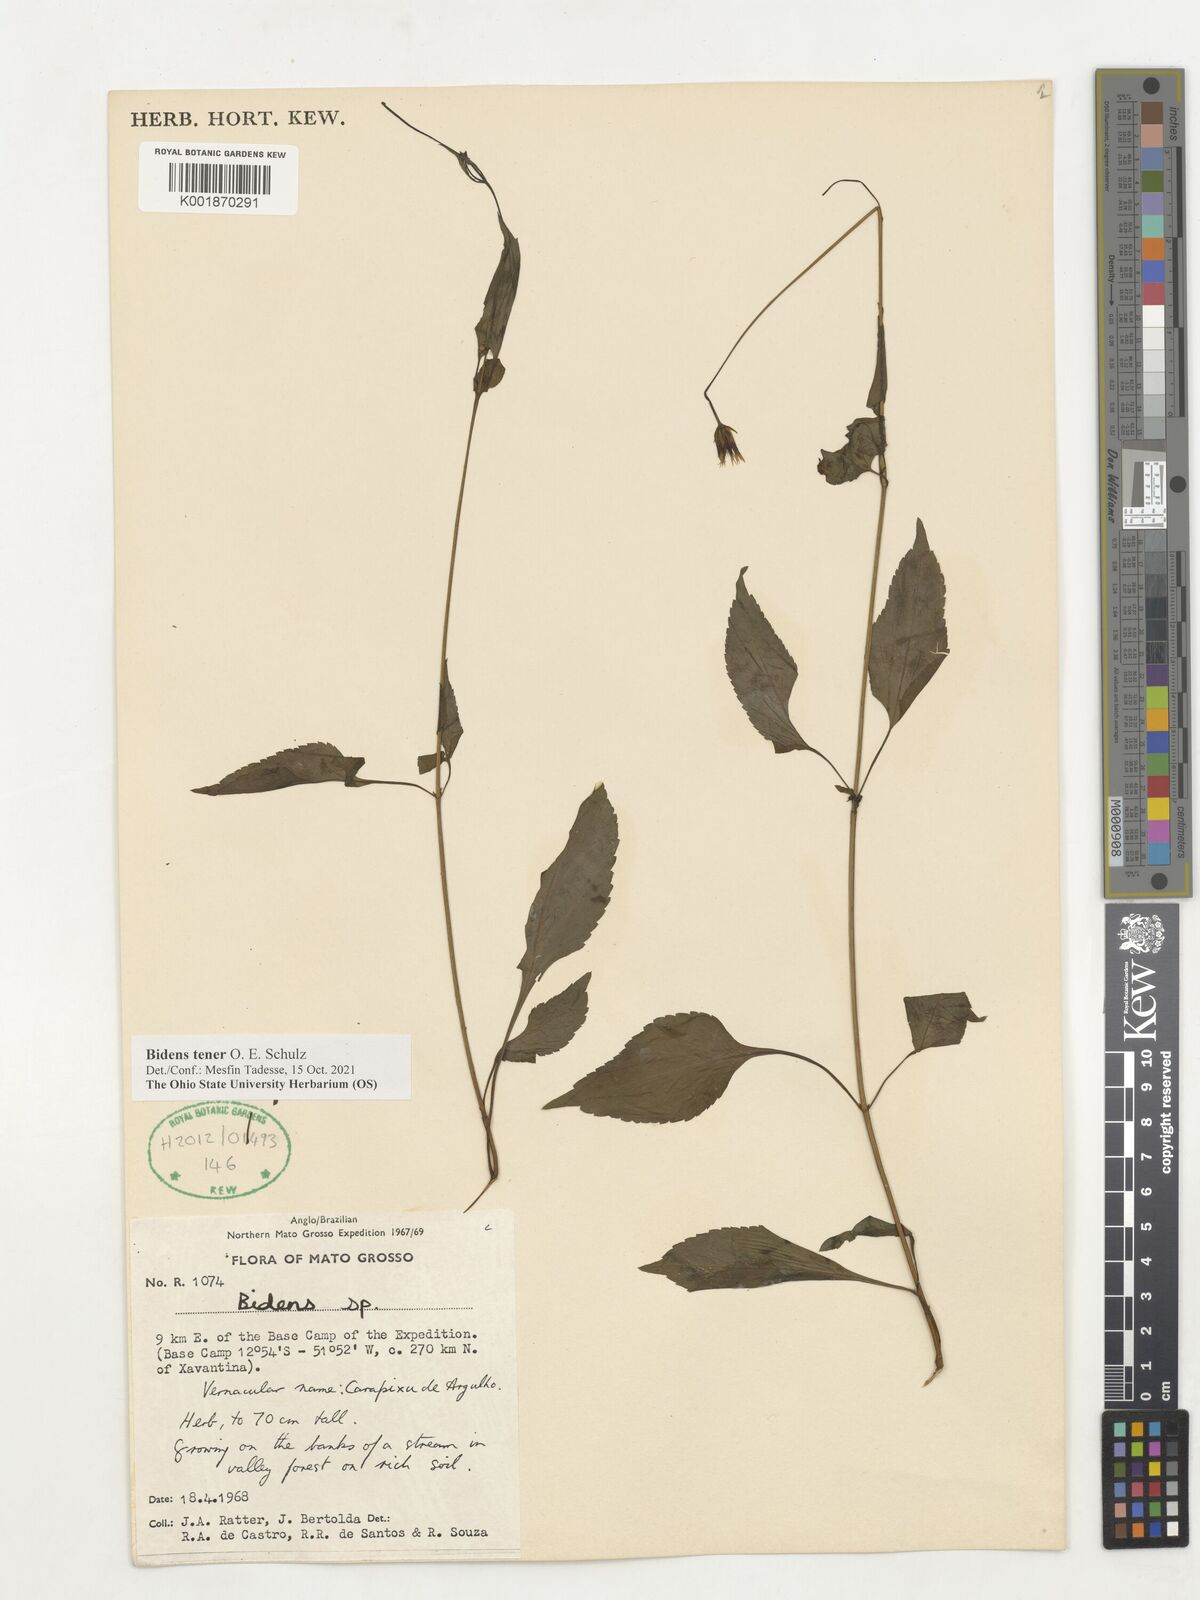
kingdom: Plantae
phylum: Tracheophyta
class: Magnoliopsida
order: Asterales
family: Asteraceae
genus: Bidens
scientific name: Bidens tenera
